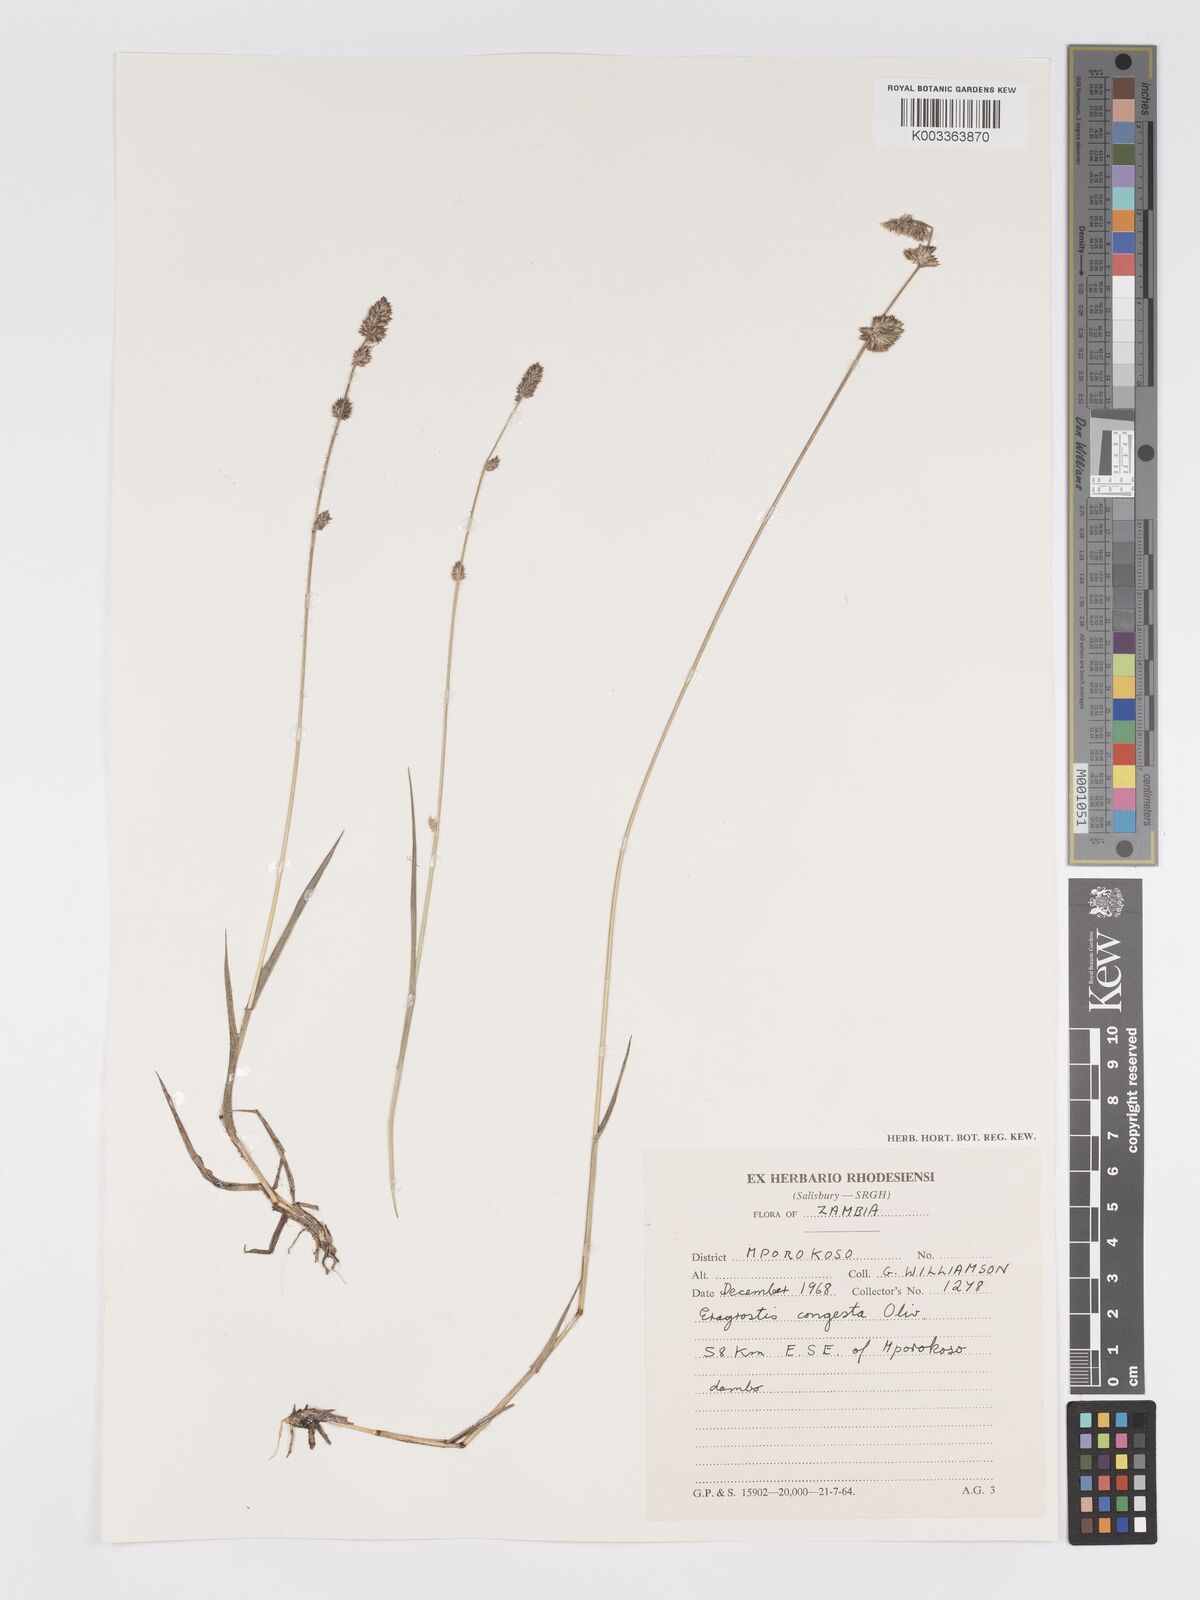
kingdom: Plantae
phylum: Tracheophyta
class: Liliopsida
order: Poales
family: Poaceae
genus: Eragrostis
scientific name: Eragrostis congesta
